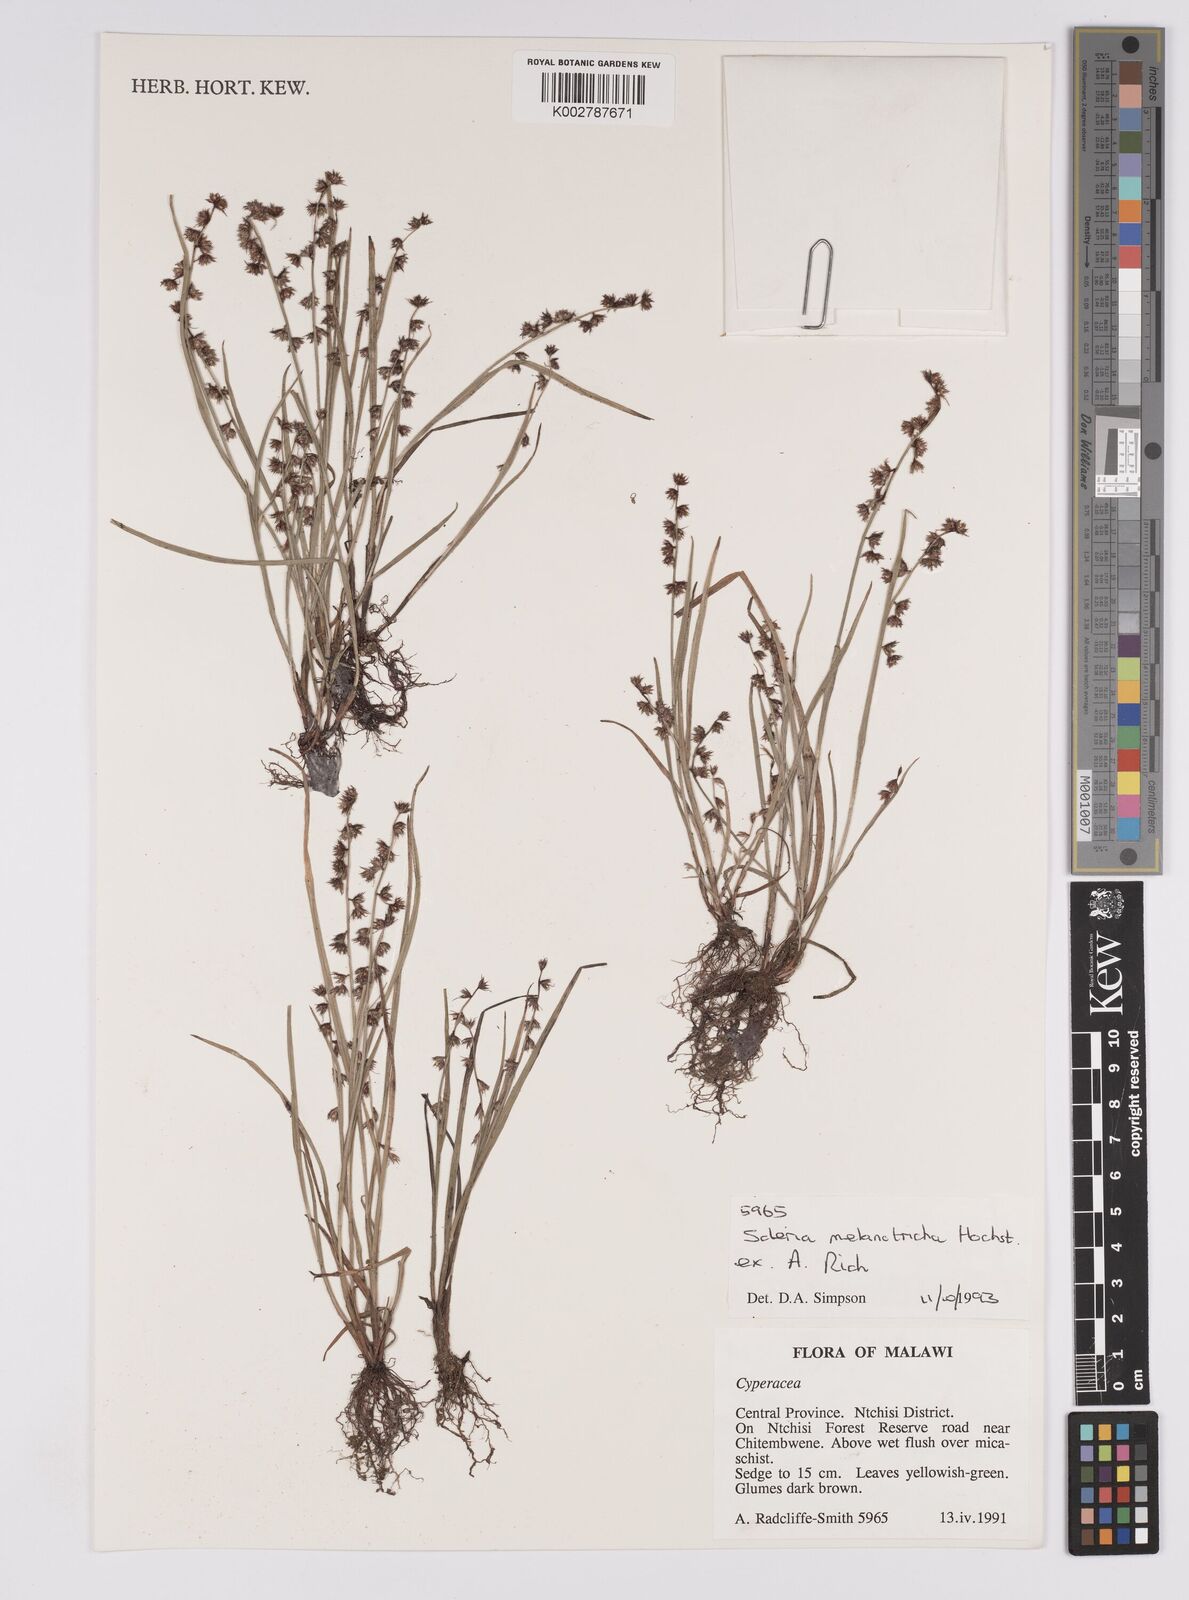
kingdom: Plantae
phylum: Tracheophyta
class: Liliopsida
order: Poales
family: Cyperaceae
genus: Scleria
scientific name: Scleria melanotricha
